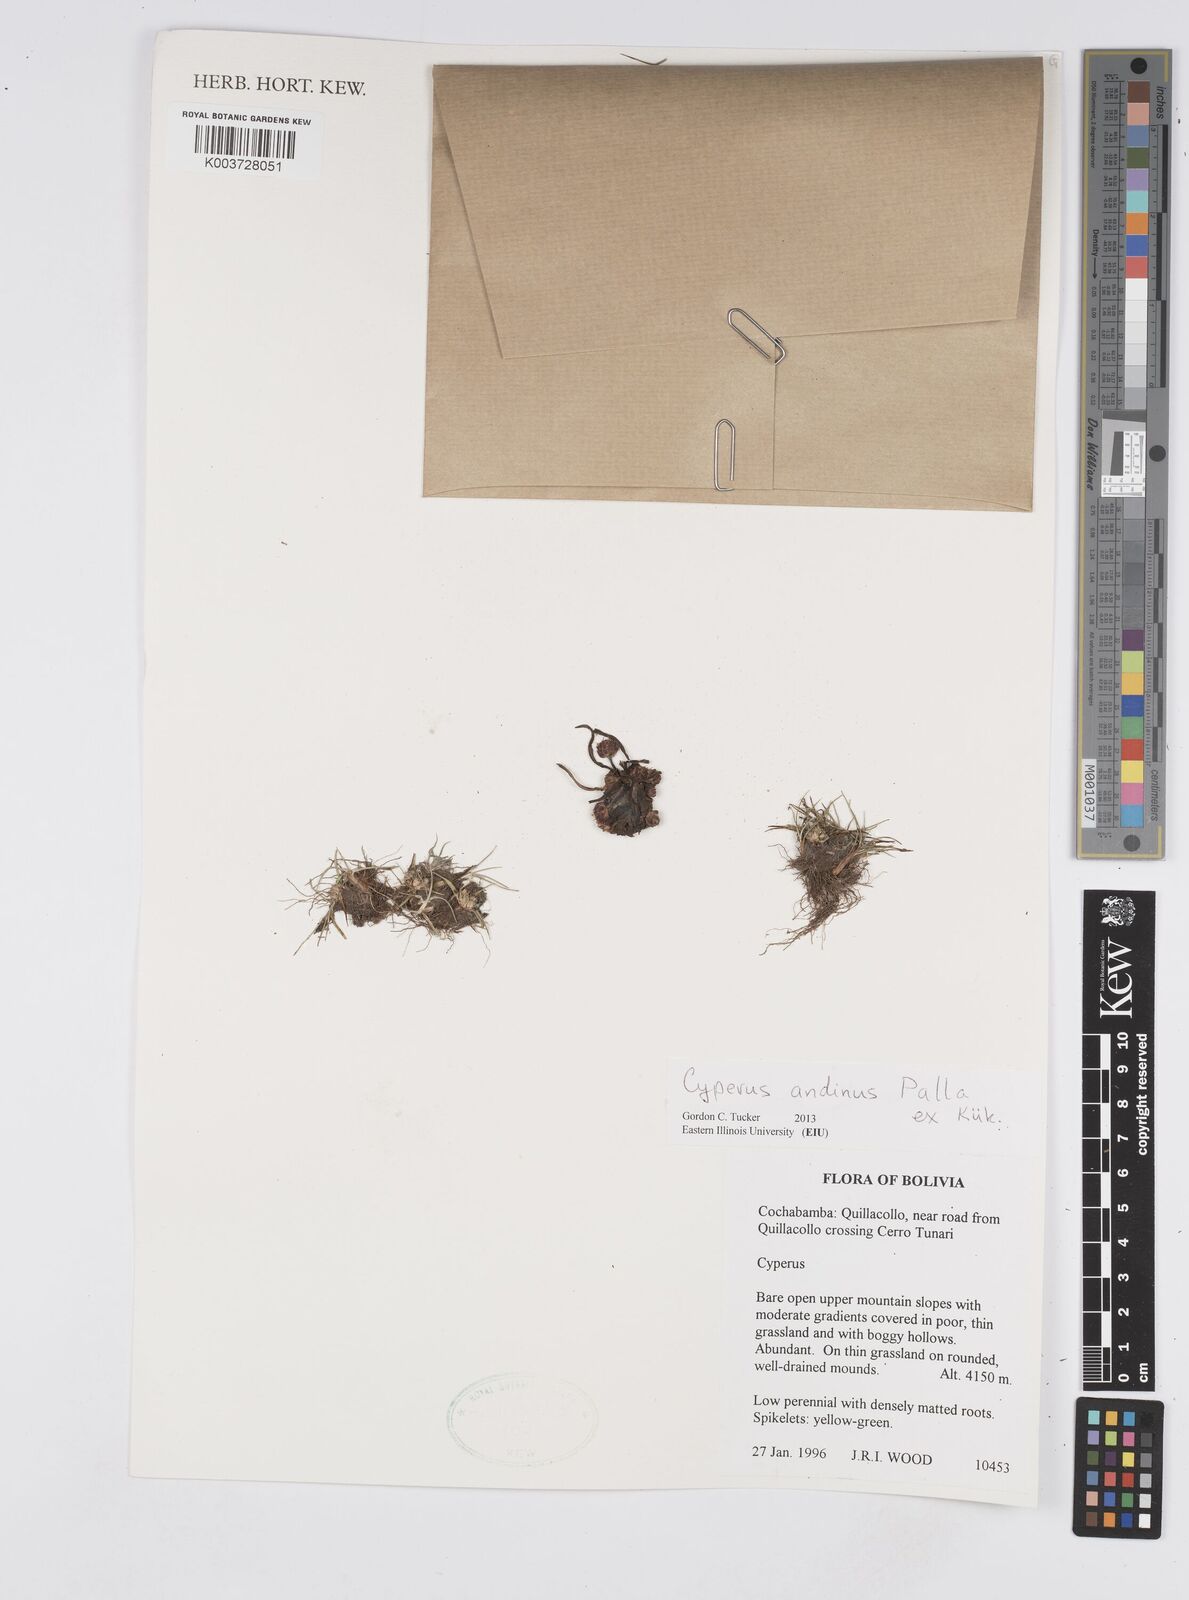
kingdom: Plantae
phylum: Tracheophyta
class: Liliopsida
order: Poales
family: Cyperaceae
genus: Cyperus
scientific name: Cyperus seslerioides
